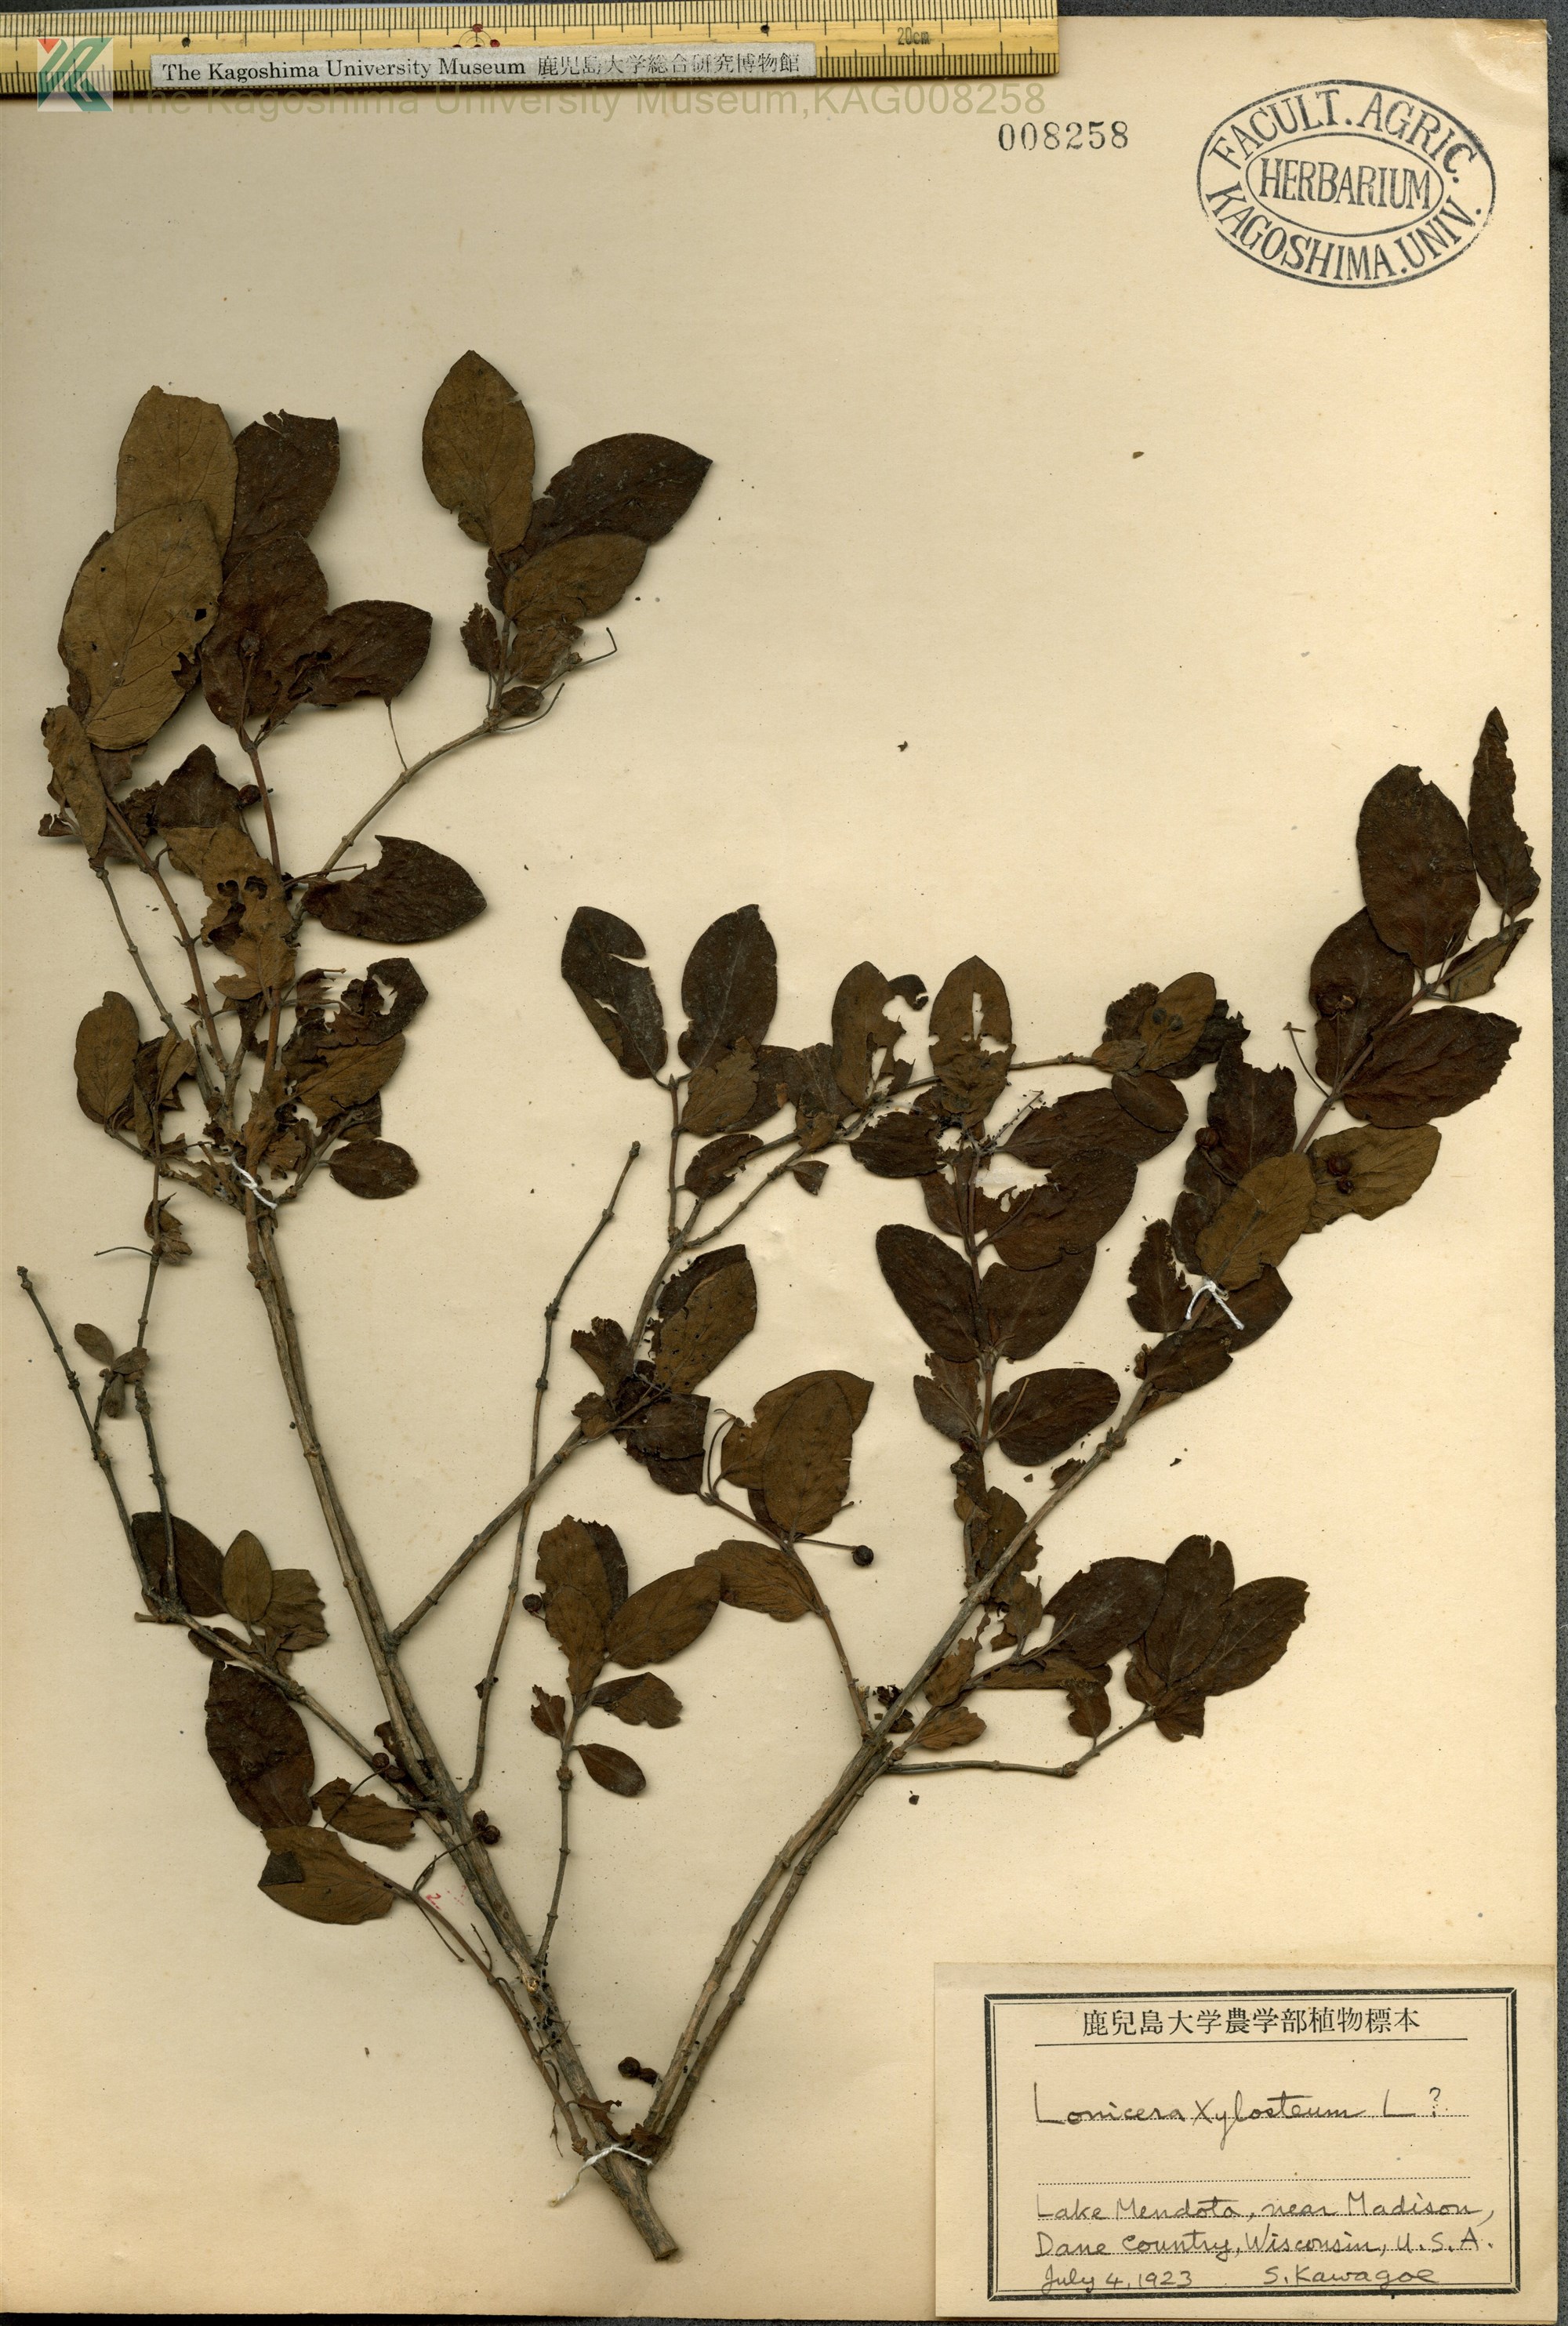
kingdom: Plantae
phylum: Tracheophyta
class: Magnoliopsida
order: Dipsacales
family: Caprifoliaceae
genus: Lonicera
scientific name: Lonicera xylosteum
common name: Fly honeysuckle
